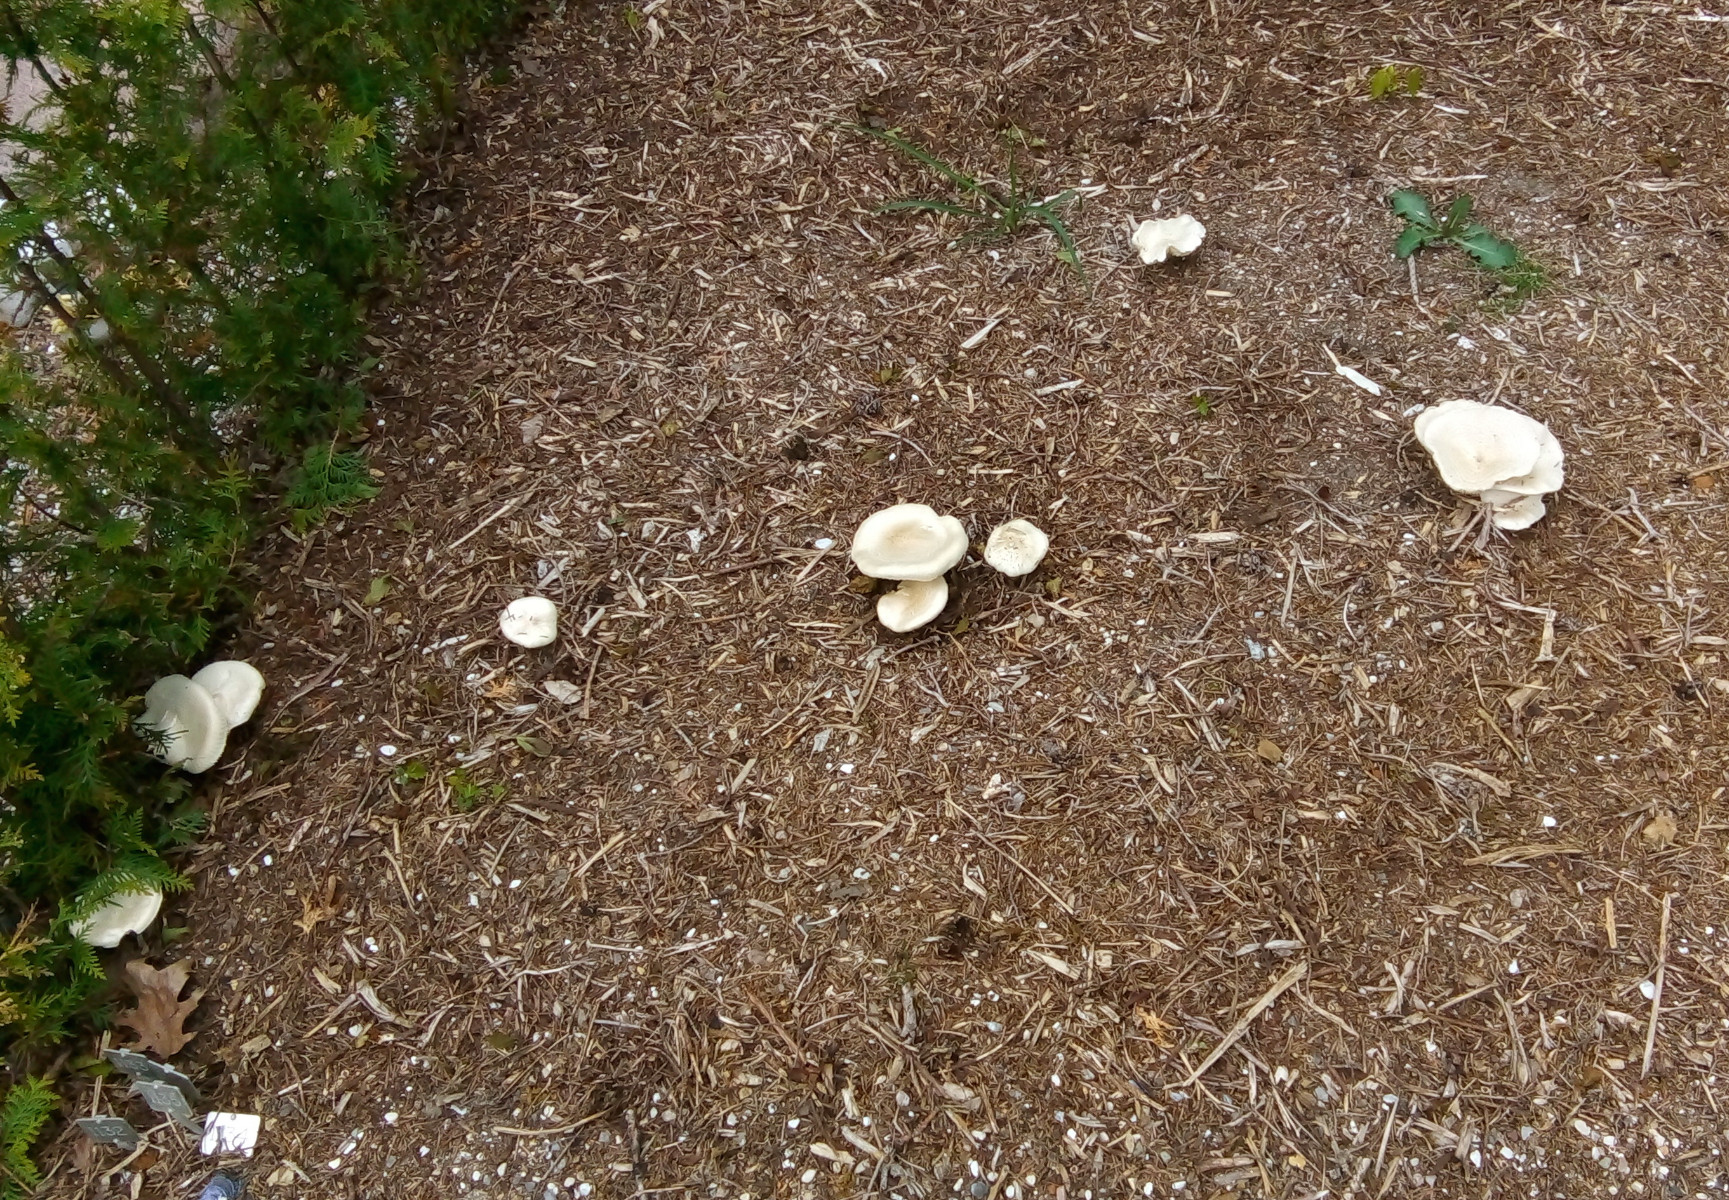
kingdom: Fungi
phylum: Basidiomycota
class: Agaricomycetes
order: Agaricales
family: Tricholomataceae
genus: Melanoleuca
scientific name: Melanoleuca verrucipes
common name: rufodet munkehat
